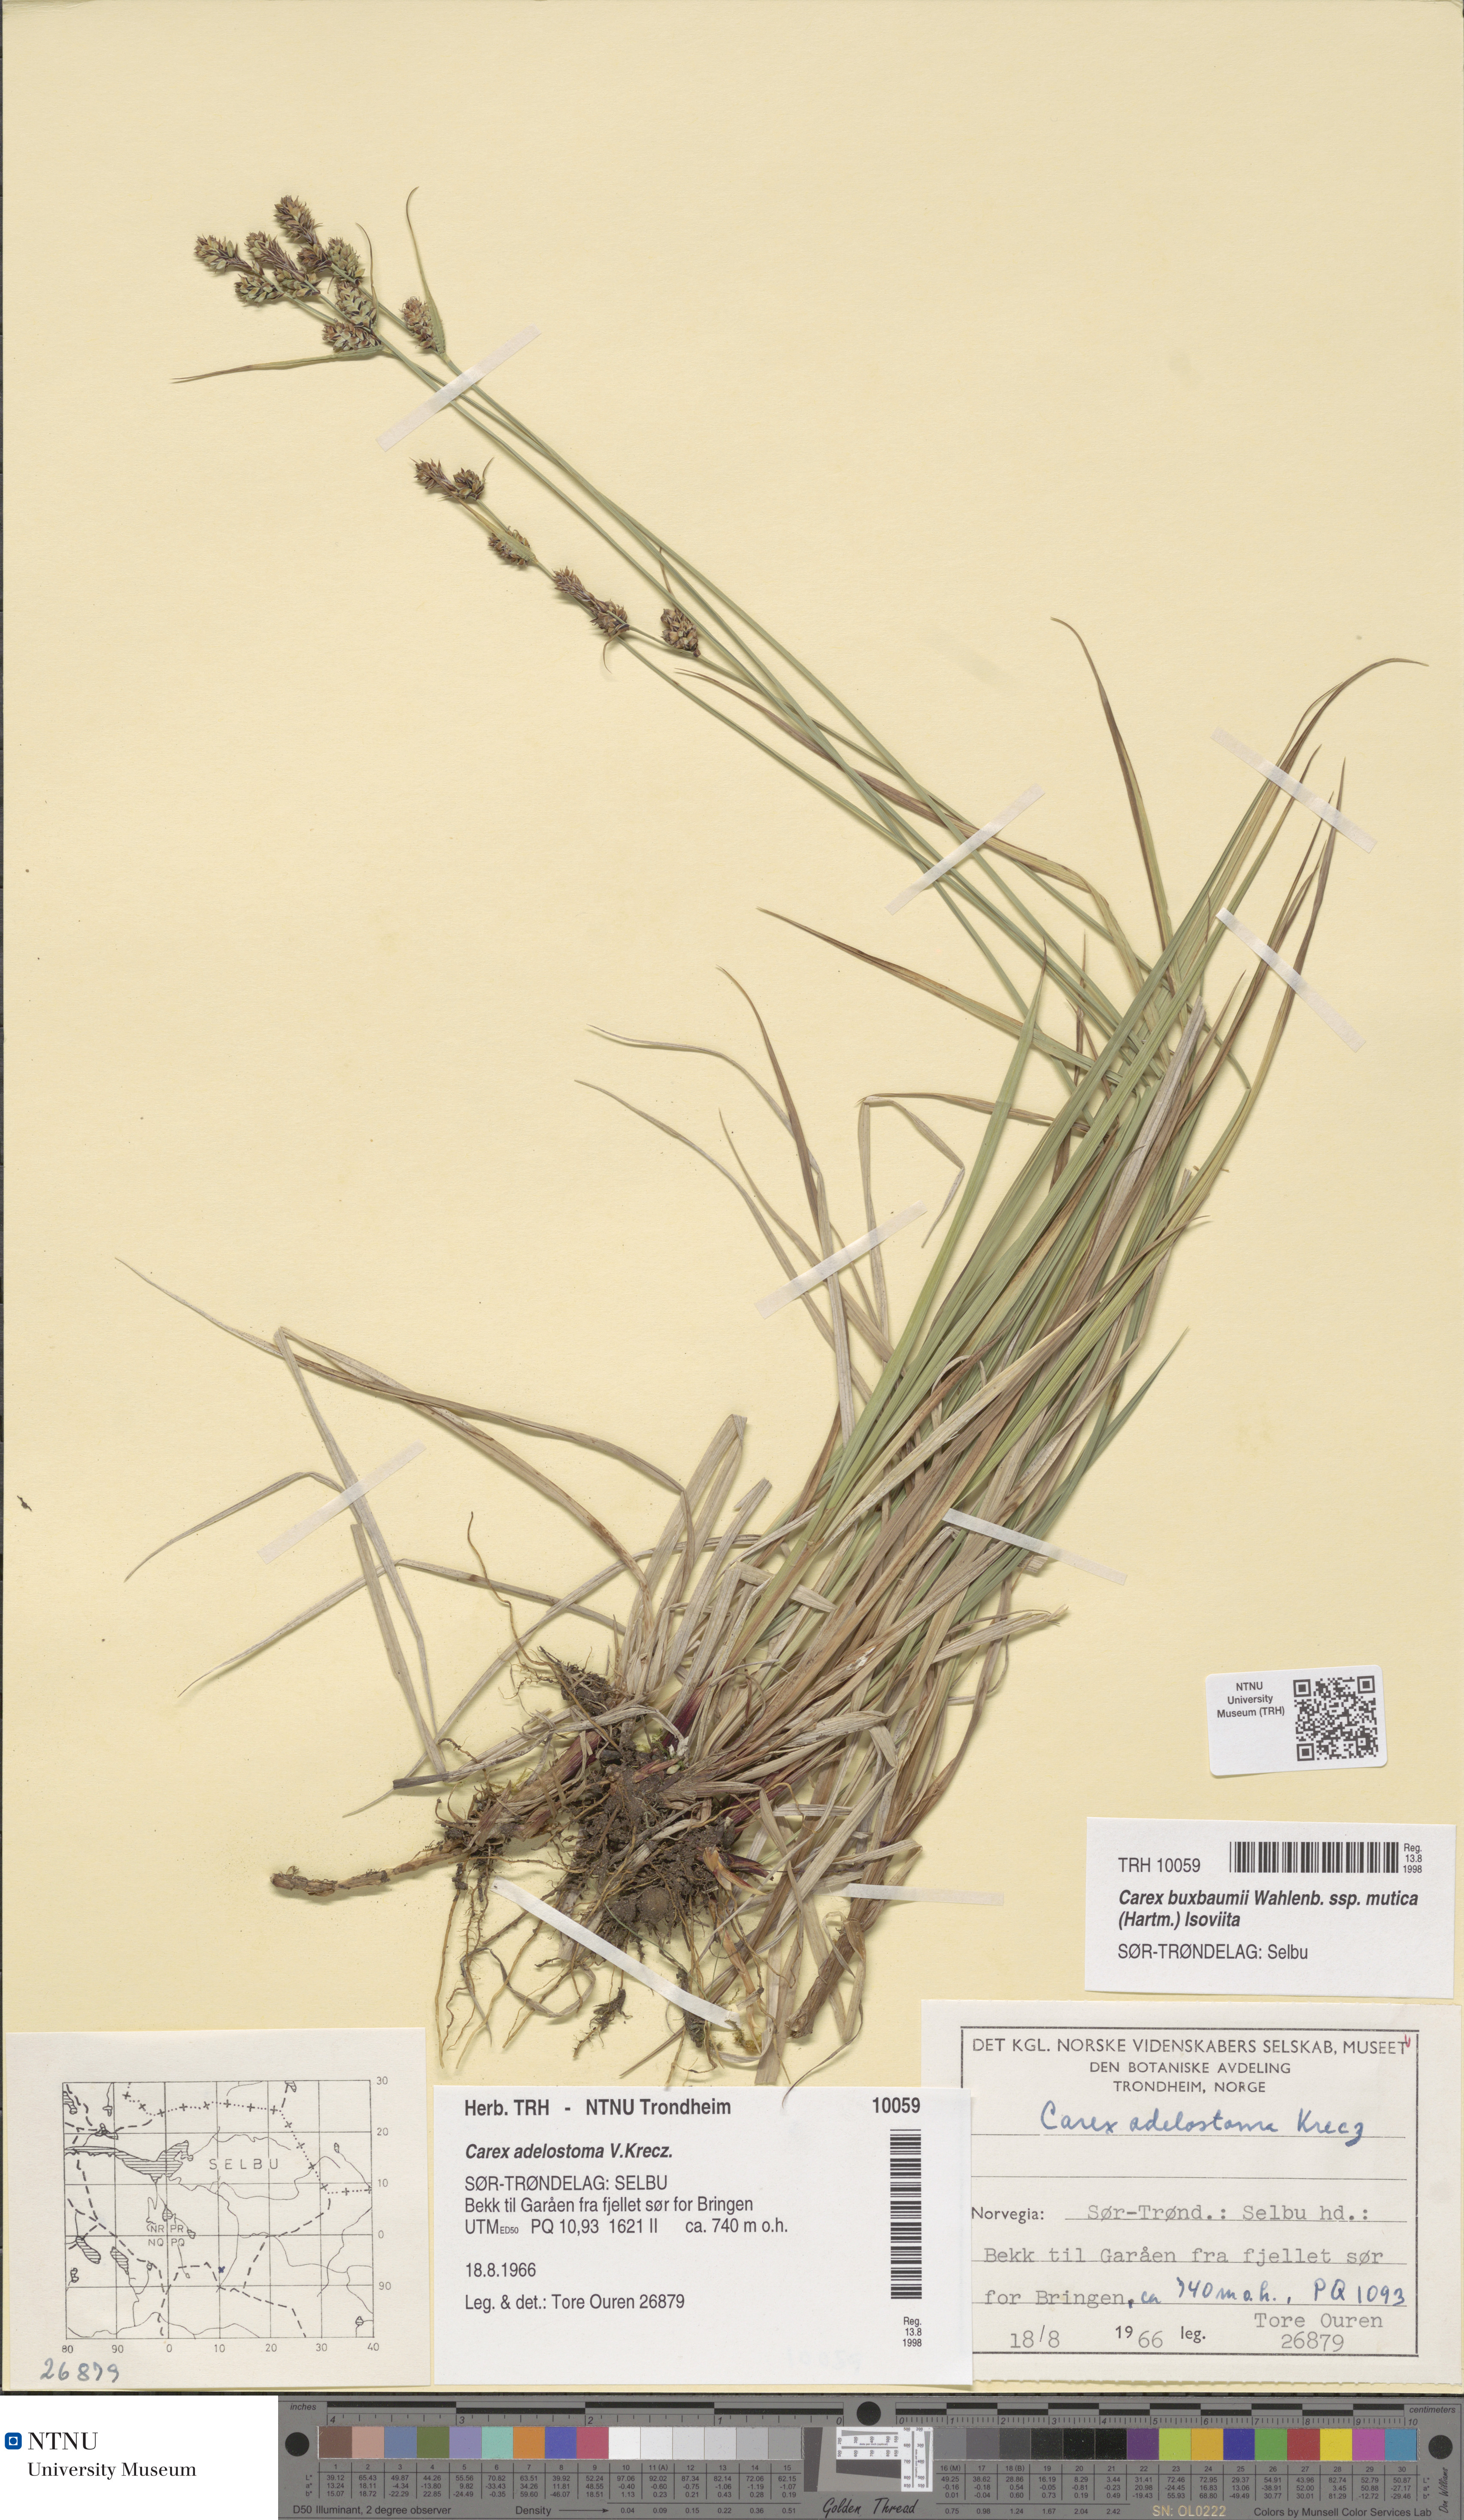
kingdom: Plantae
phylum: Tracheophyta
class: Liliopsida
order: Poales
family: Cyperaceae
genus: Carex
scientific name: Carex adelostoma
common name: Circumpolar sedge
